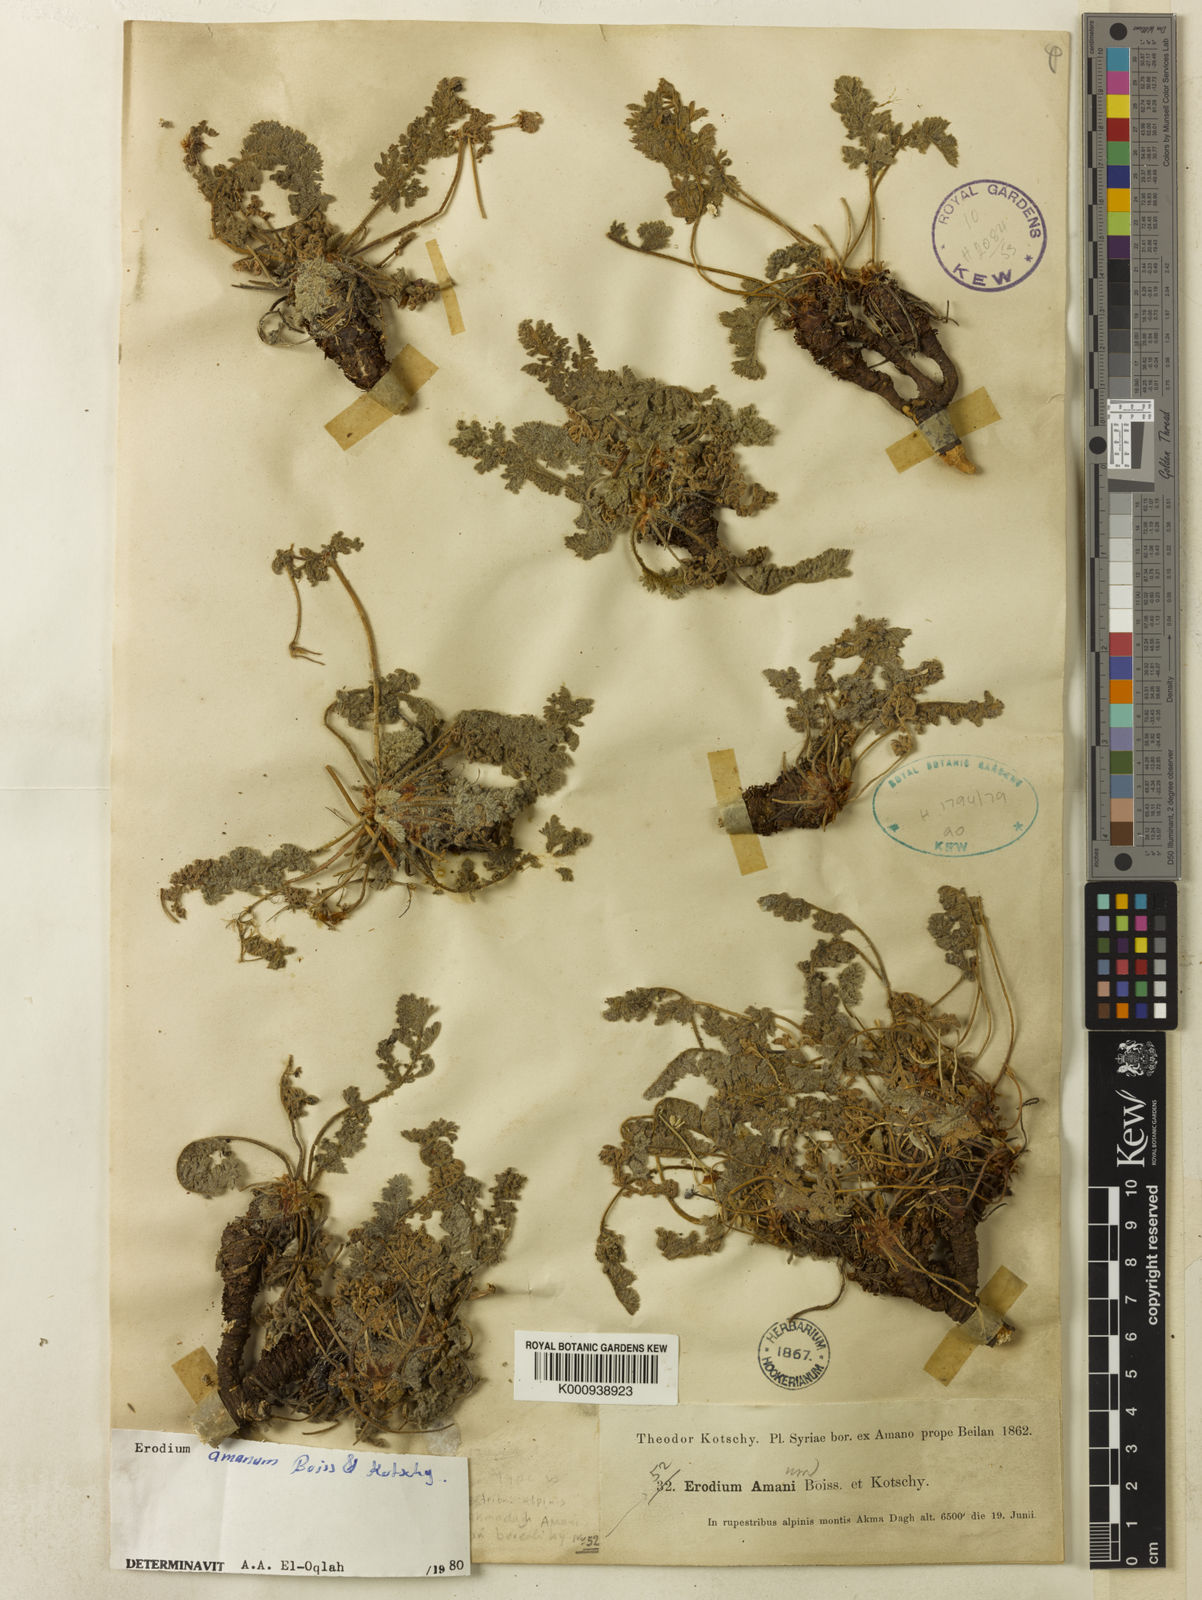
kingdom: Plantae
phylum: Tracheophyta
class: Magnoliopsida
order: Geraniales
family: Geraniaceae
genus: Erodium
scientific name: Erodium trichomanifolium
